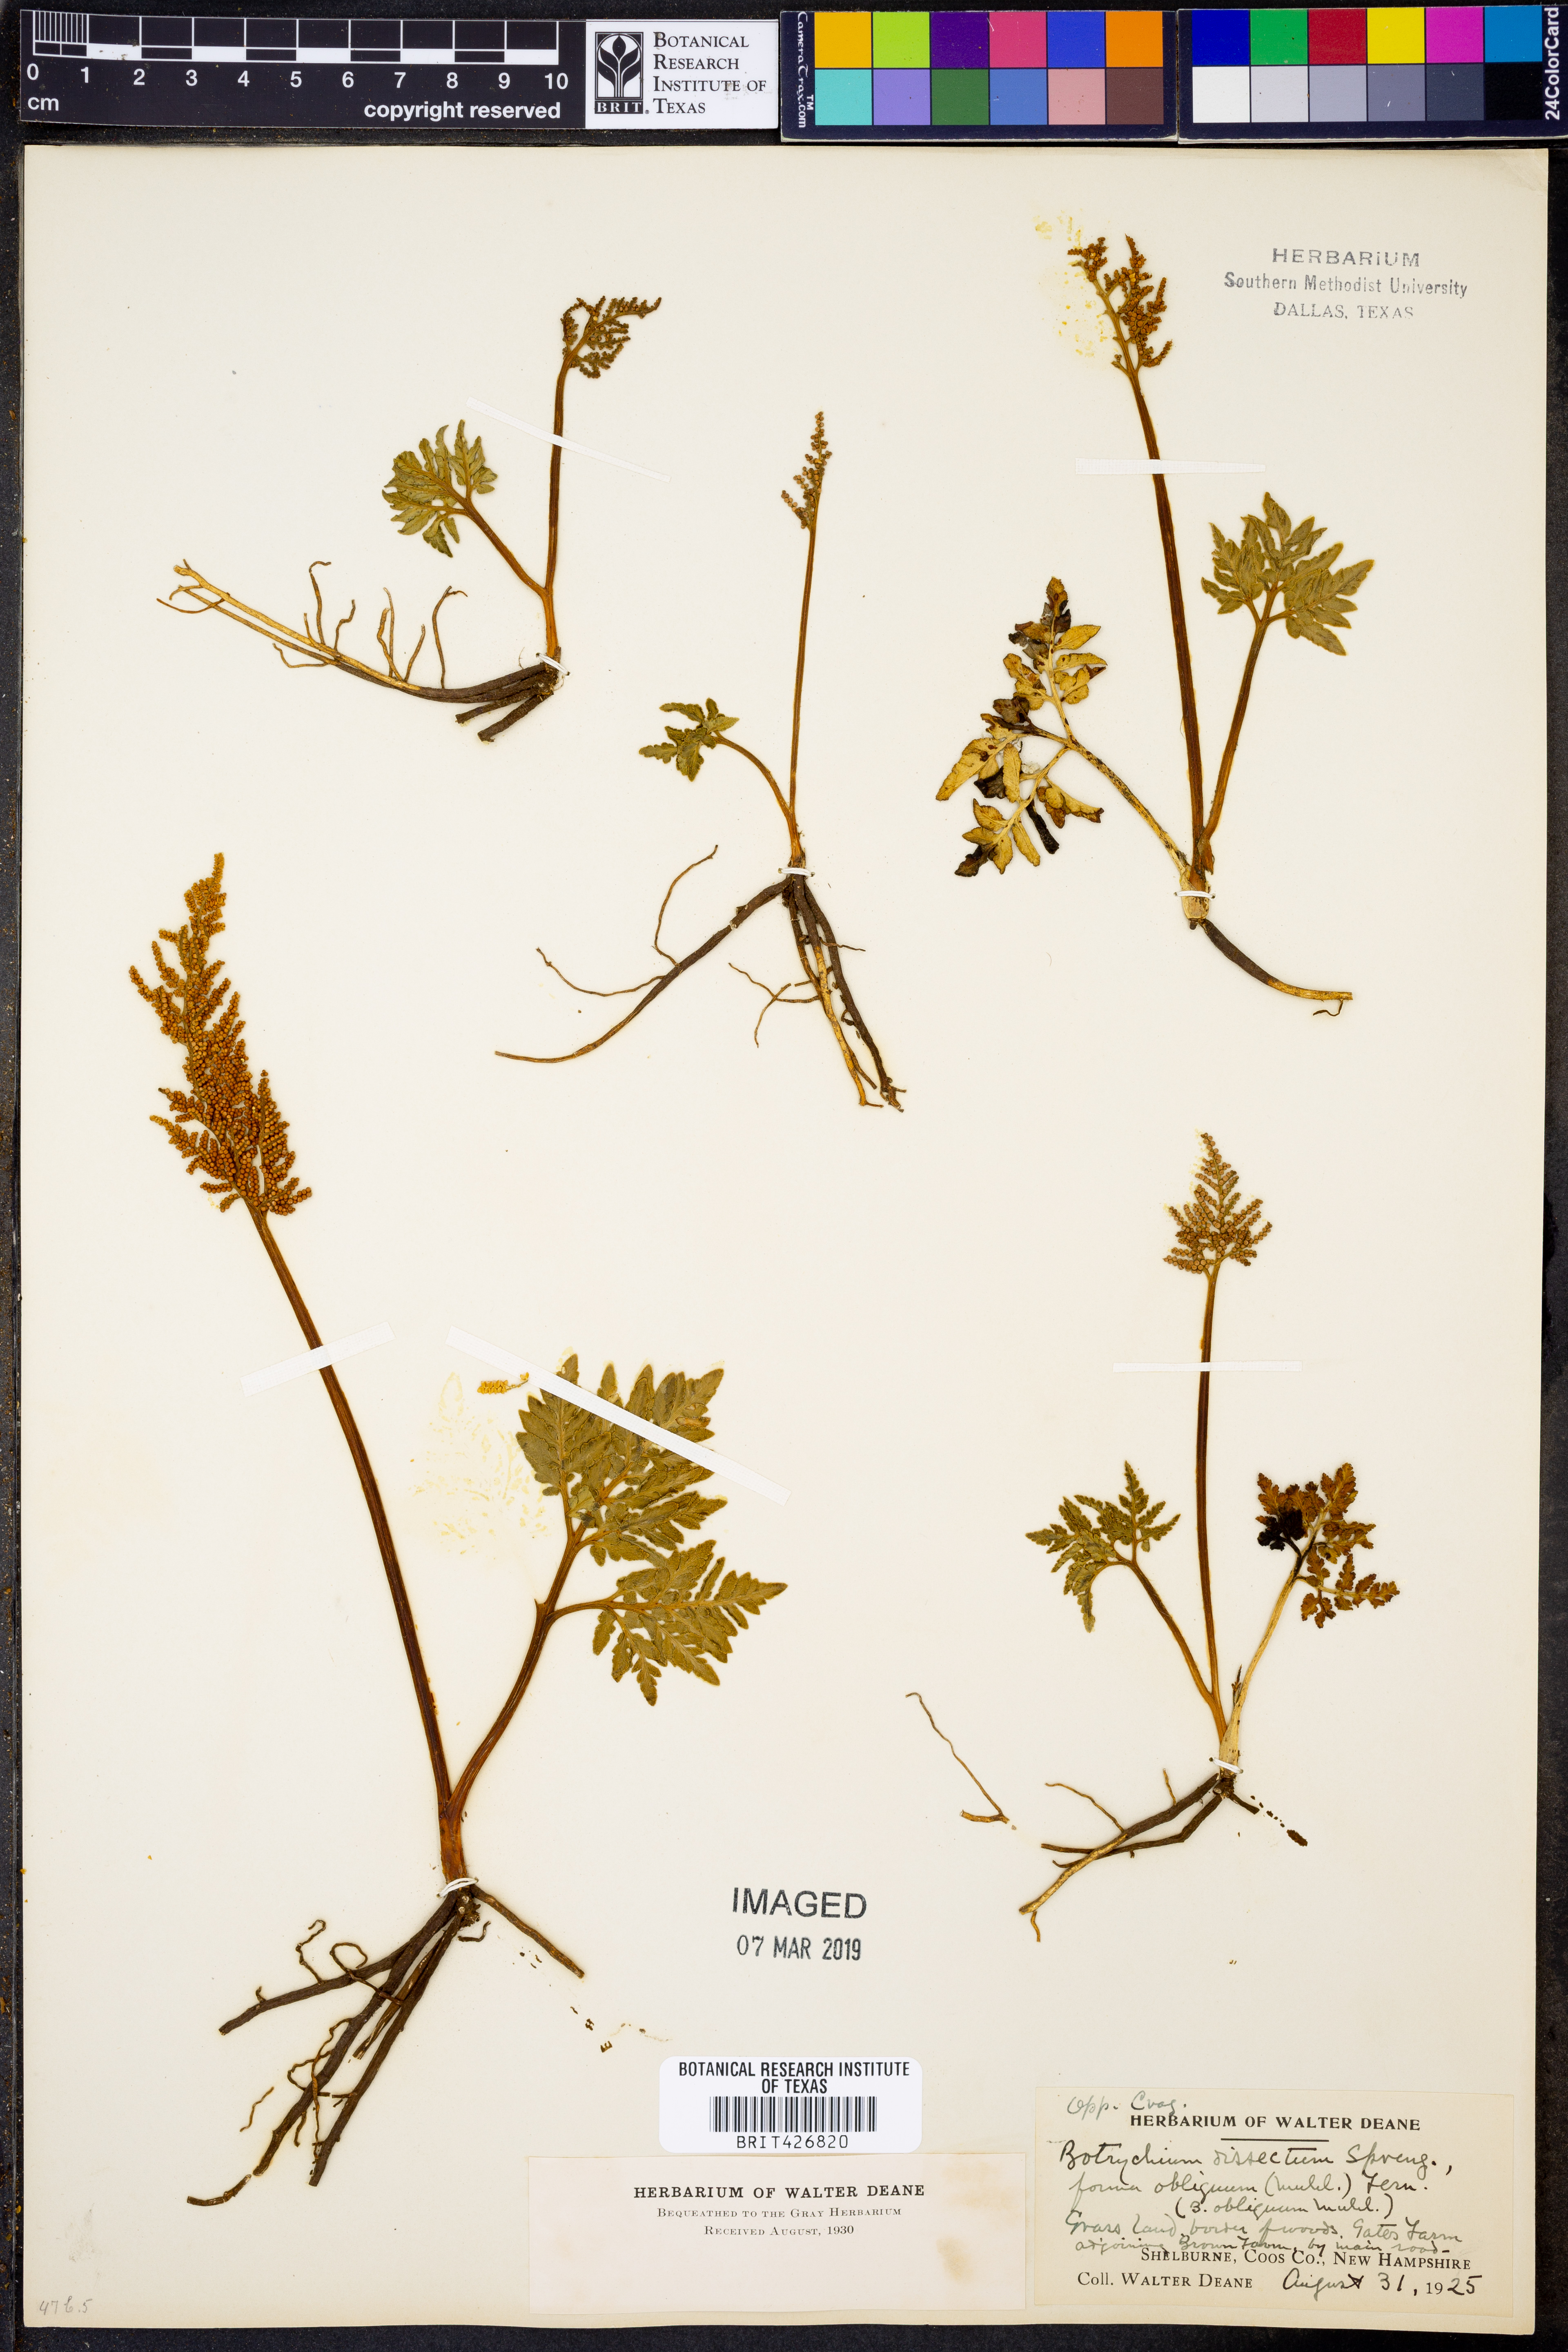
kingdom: Plantae
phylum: Tracheophyta
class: Polypodiopsida
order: Ophioglossales
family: Ophioglossaceae
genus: Sceptridium
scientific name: Sceptridium dissectum
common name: Cut-leaved grapefern
